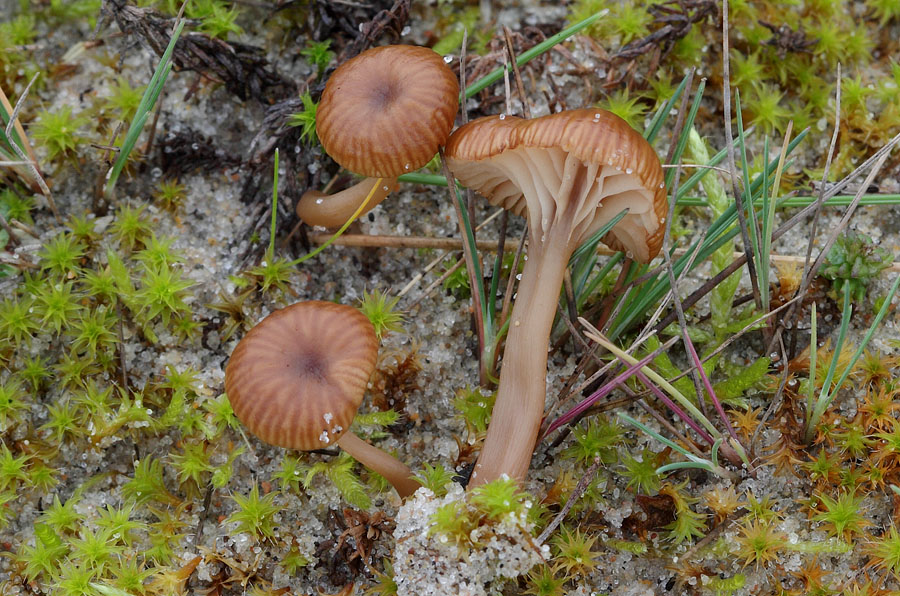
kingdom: Fungi
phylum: Basidiomycota
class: Agaricomycetes
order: Agaricales
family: Tricholomataceae
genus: Omphalina
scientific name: Omphalina pyxidata
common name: rødbrun navlehat
